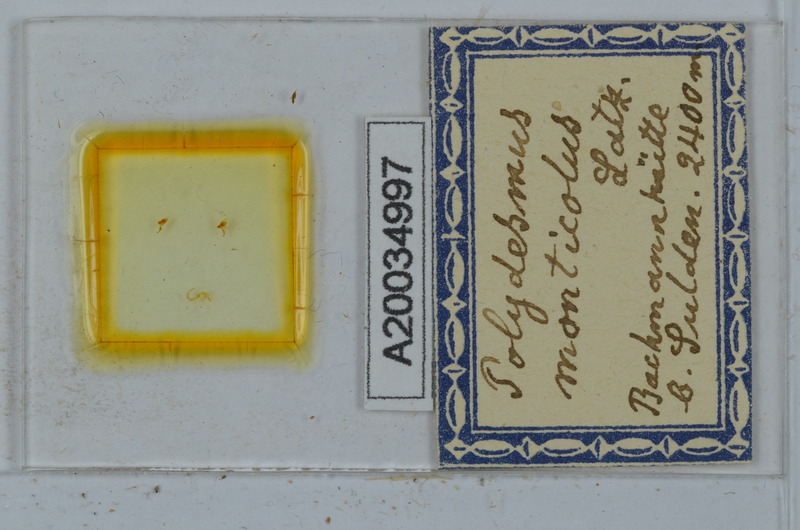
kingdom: Animalia
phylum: Arthropoda
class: Diplopoda
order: Polydesmida
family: Polydesmidae
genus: Polydesmus
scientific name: Polydesmus monticola
